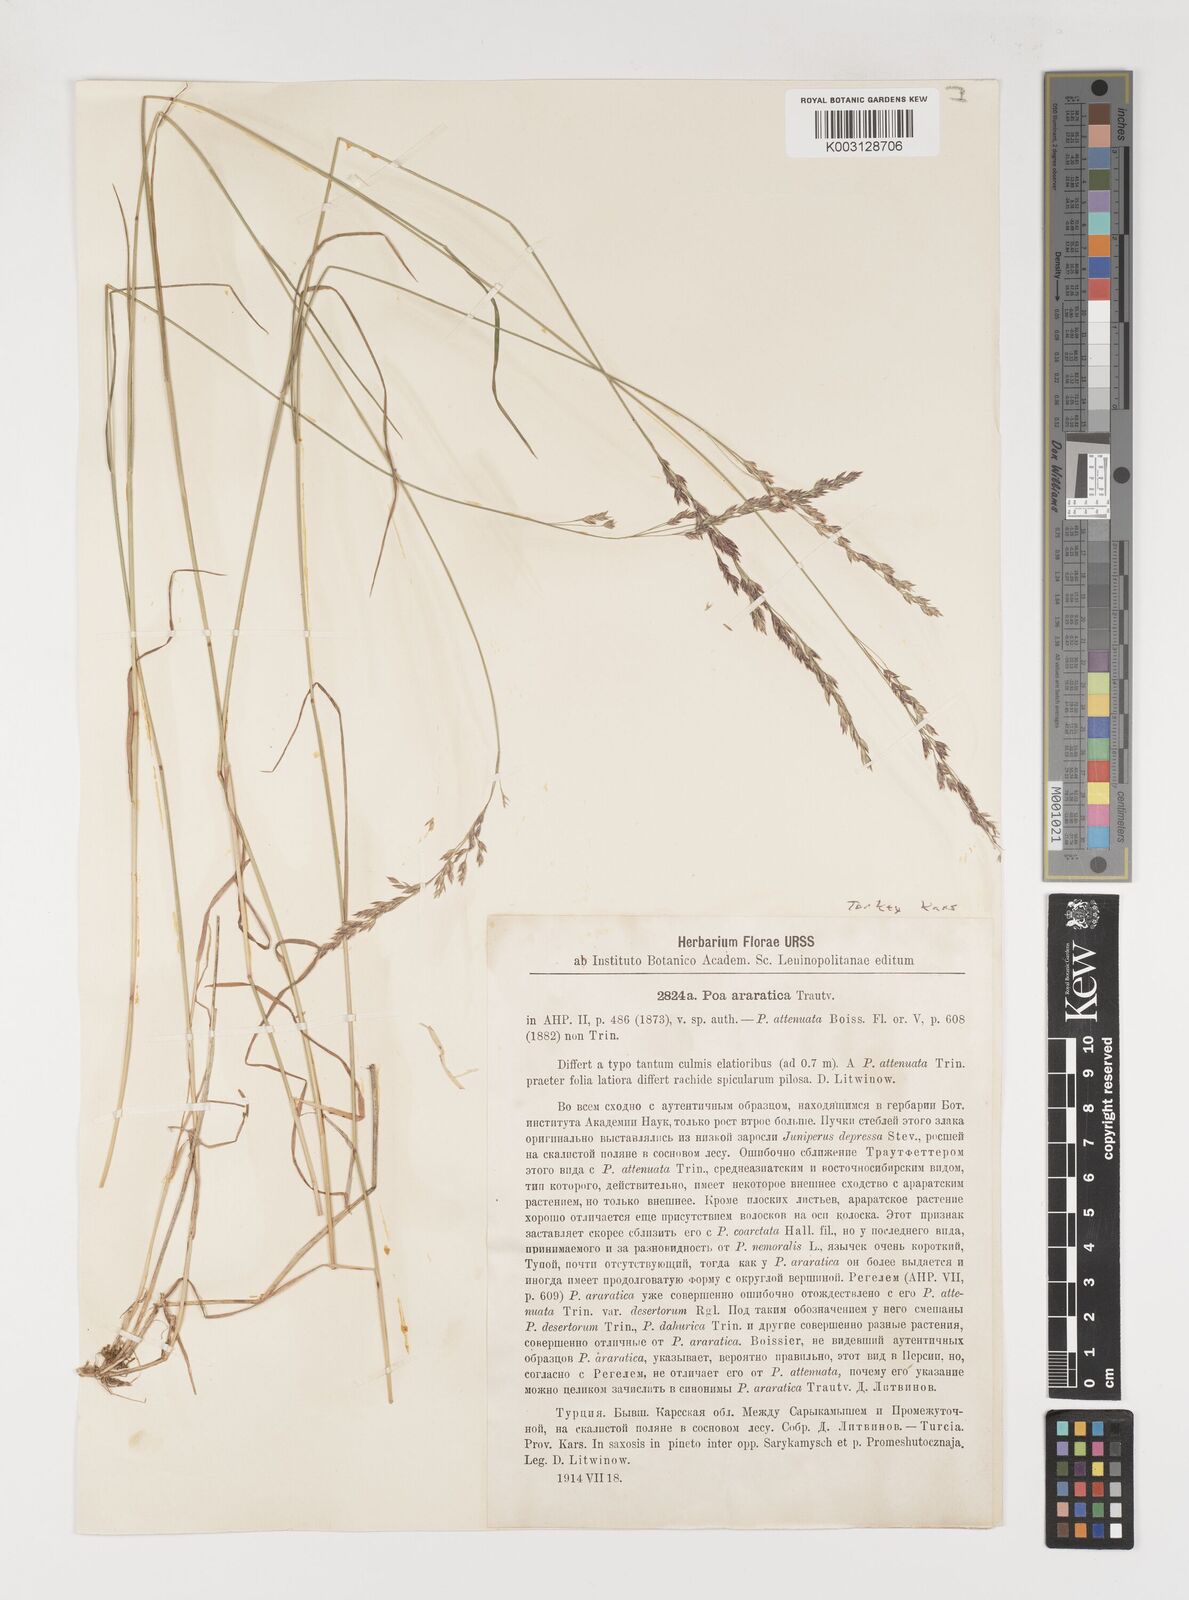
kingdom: Plantae
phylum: Tracheophyta
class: Liliopsida
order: Poales
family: Poaceae
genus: Poa
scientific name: Poa araratica
